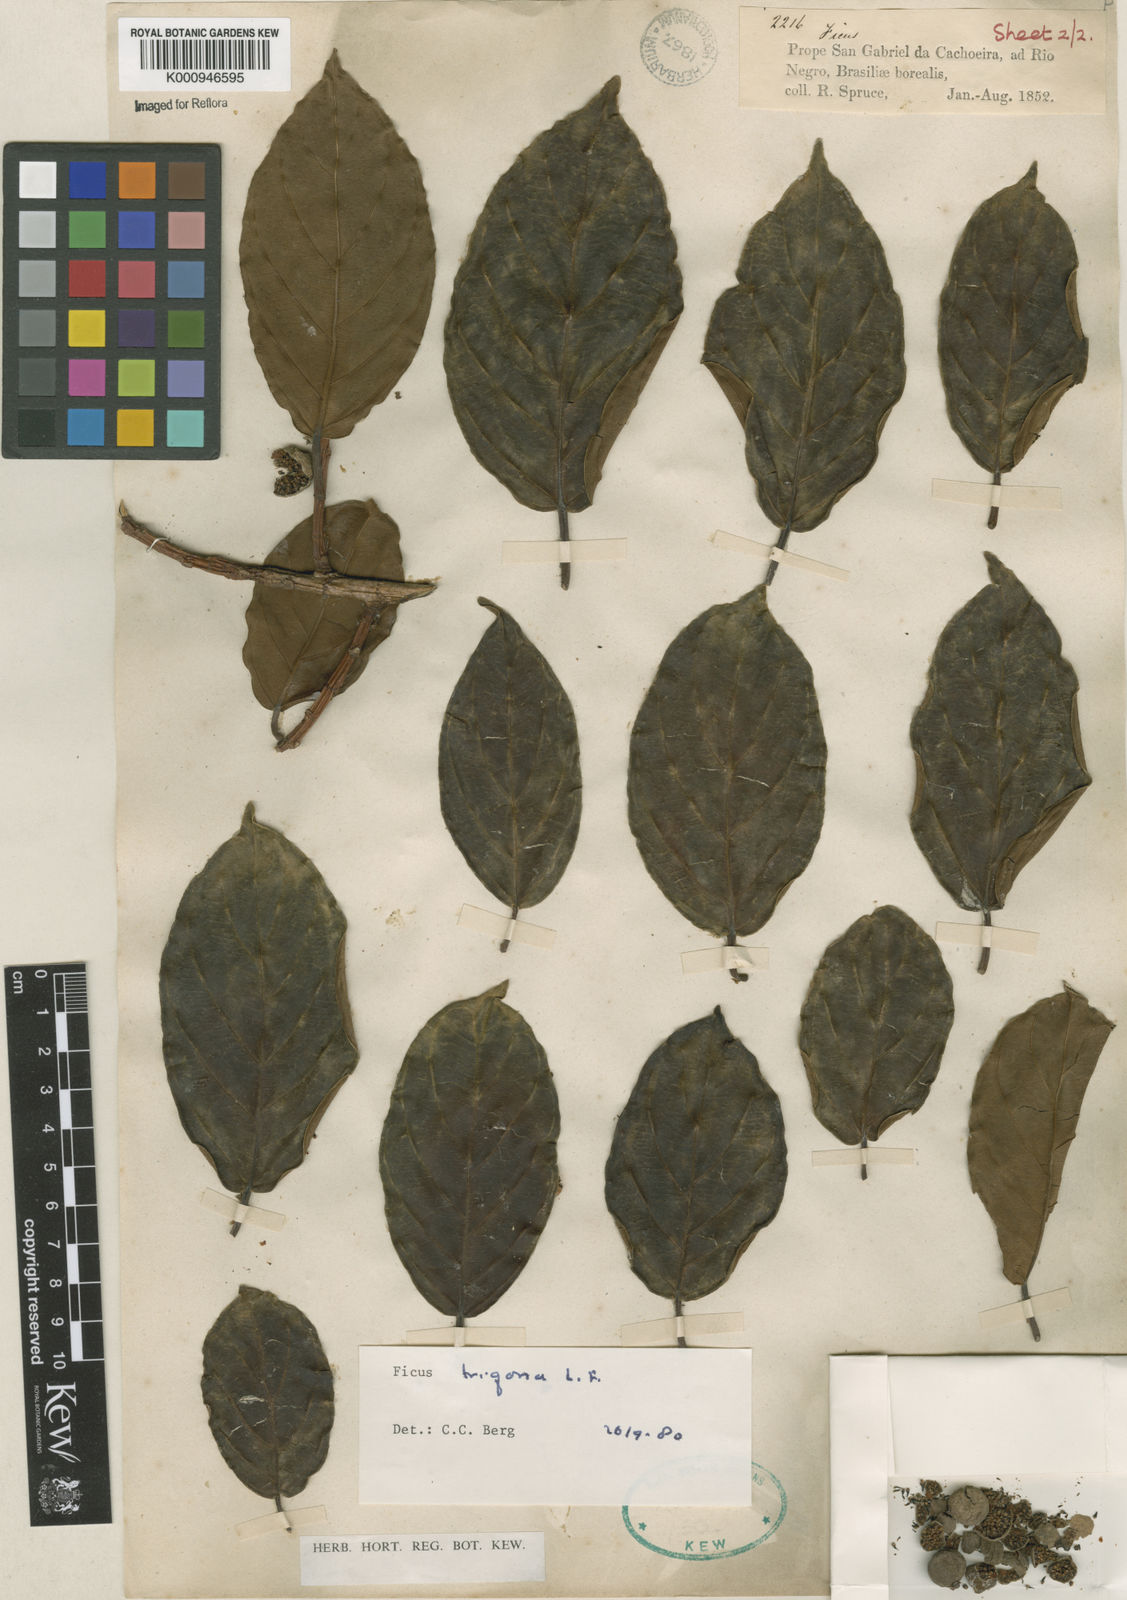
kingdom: Plantae
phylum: Tracheophyta
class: Magnoliopsida
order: Rosales
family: Moraceae
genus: Ficus
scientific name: Ficus trigona
